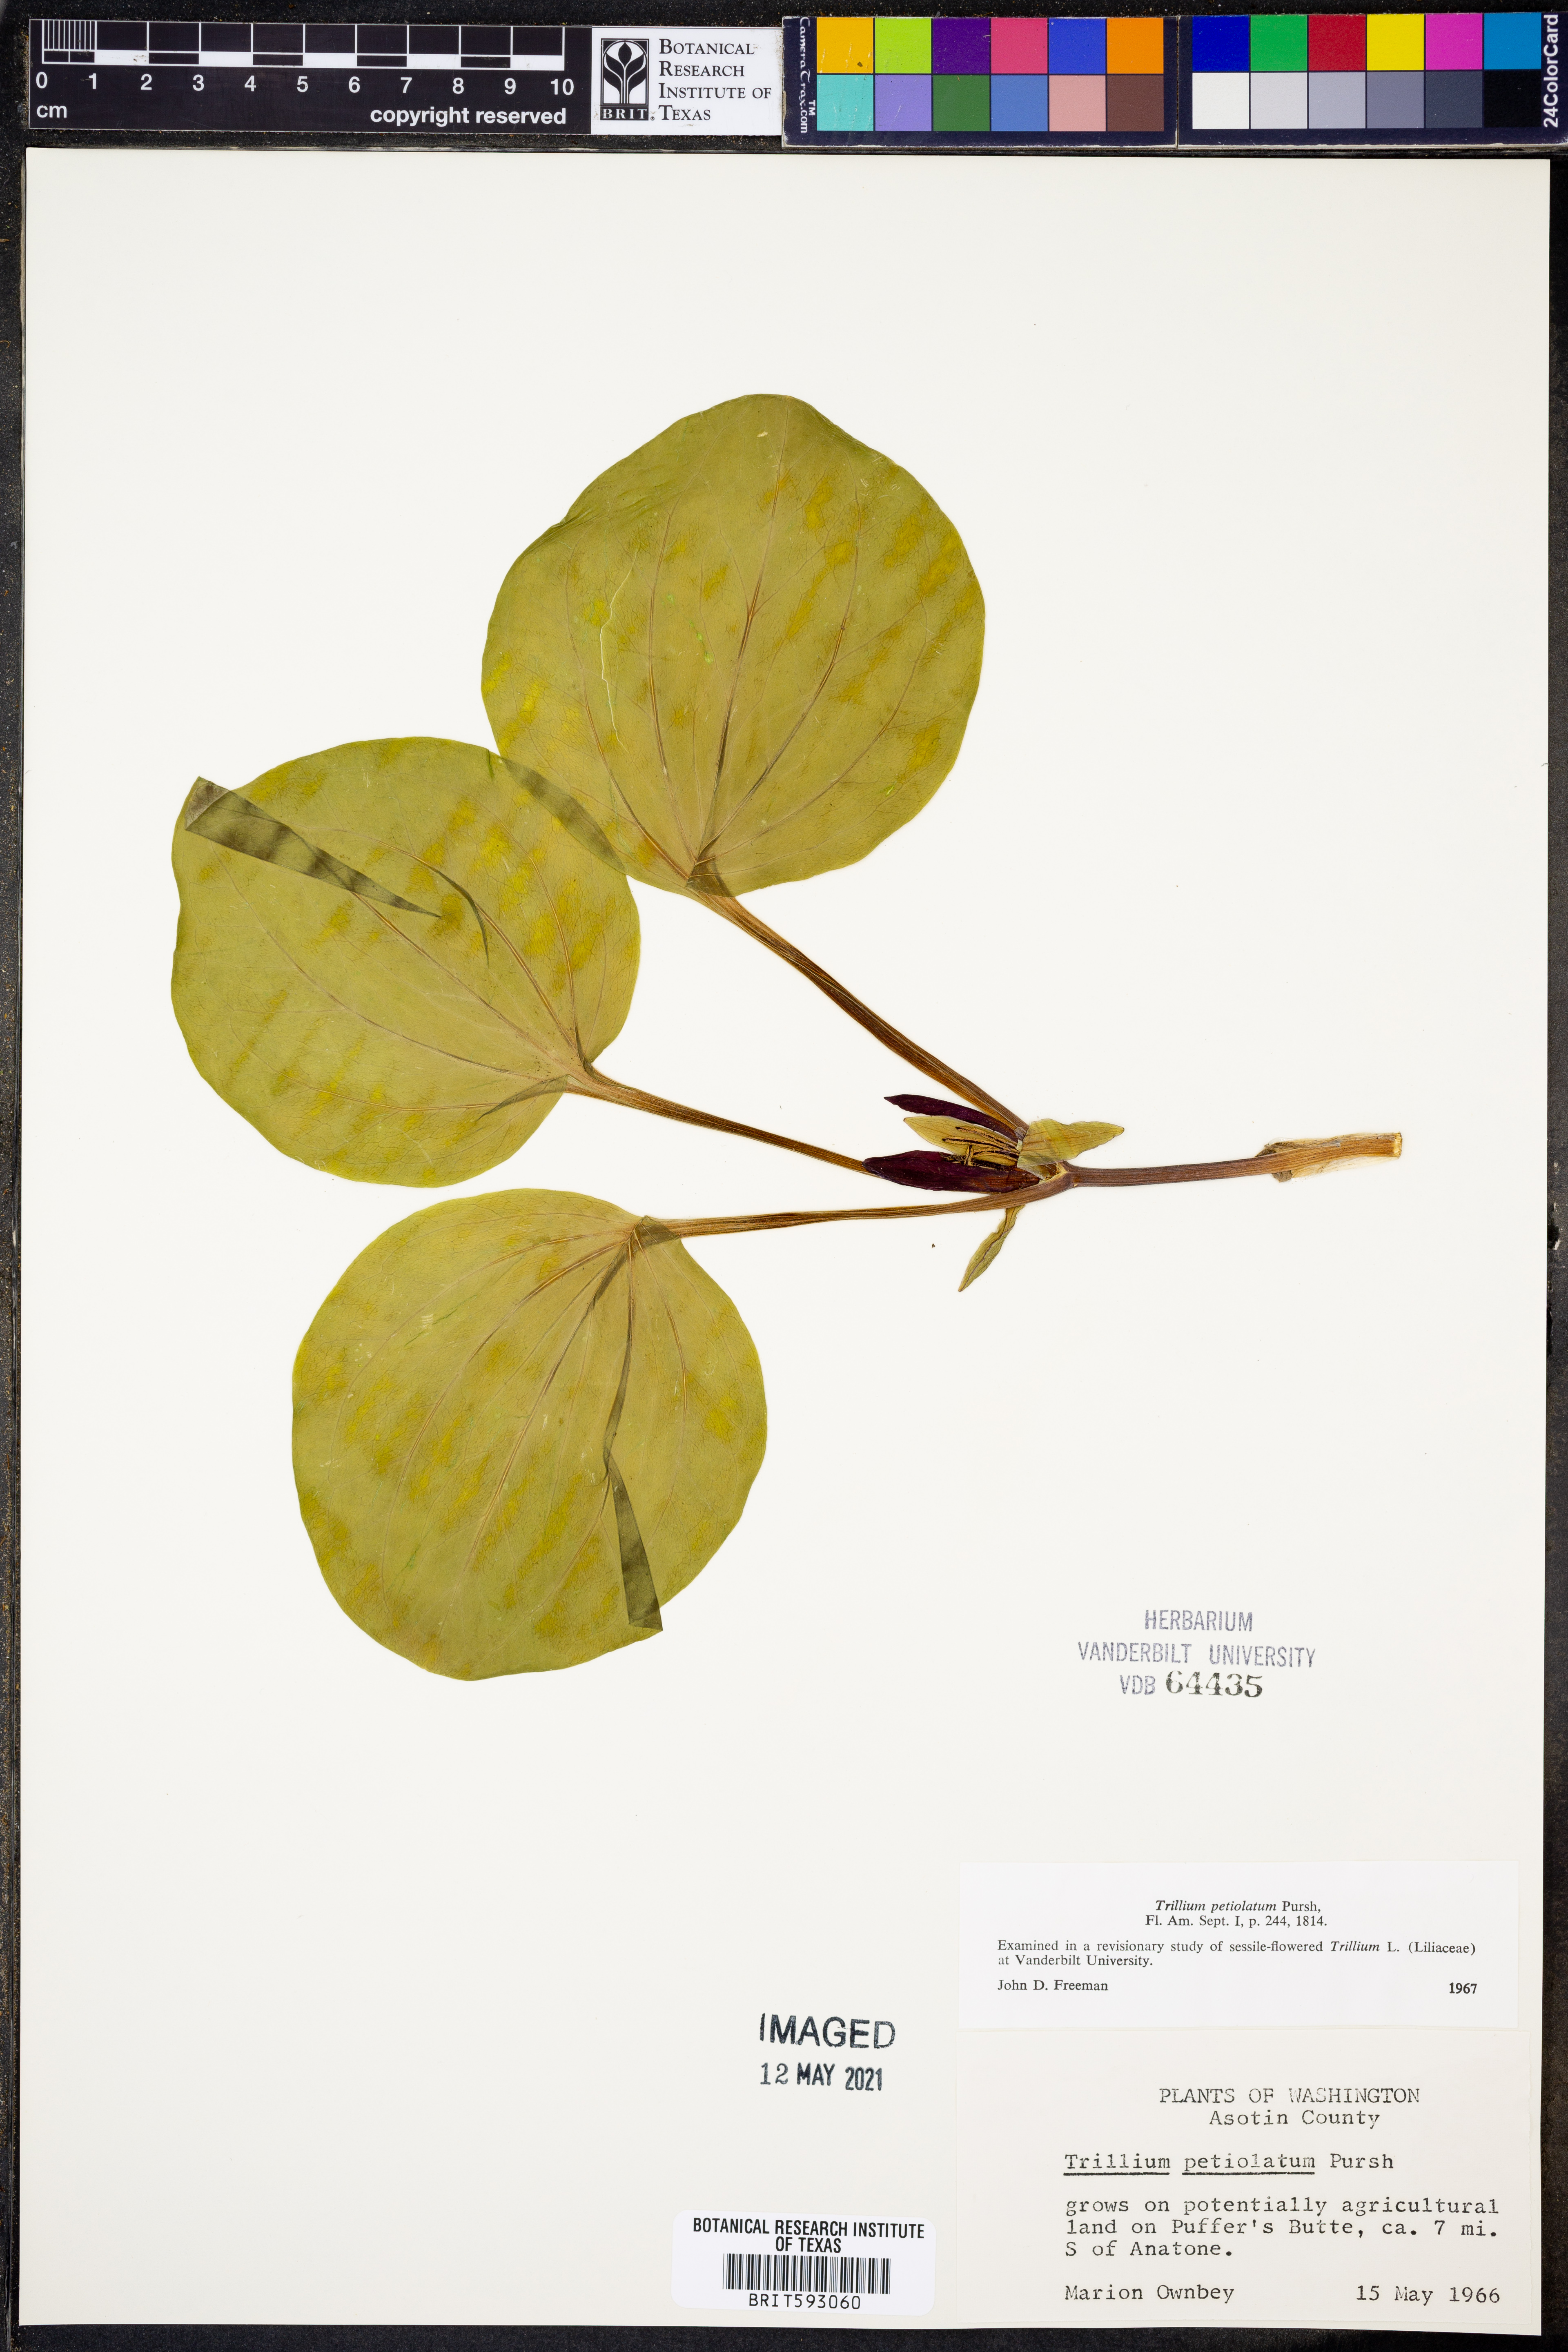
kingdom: Plantae
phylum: Tracheophyta
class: Liliopsida
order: Liliales
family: Melanthiaceae
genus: Trillium
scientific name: Trillium petiolatum
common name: Idaho trillium
